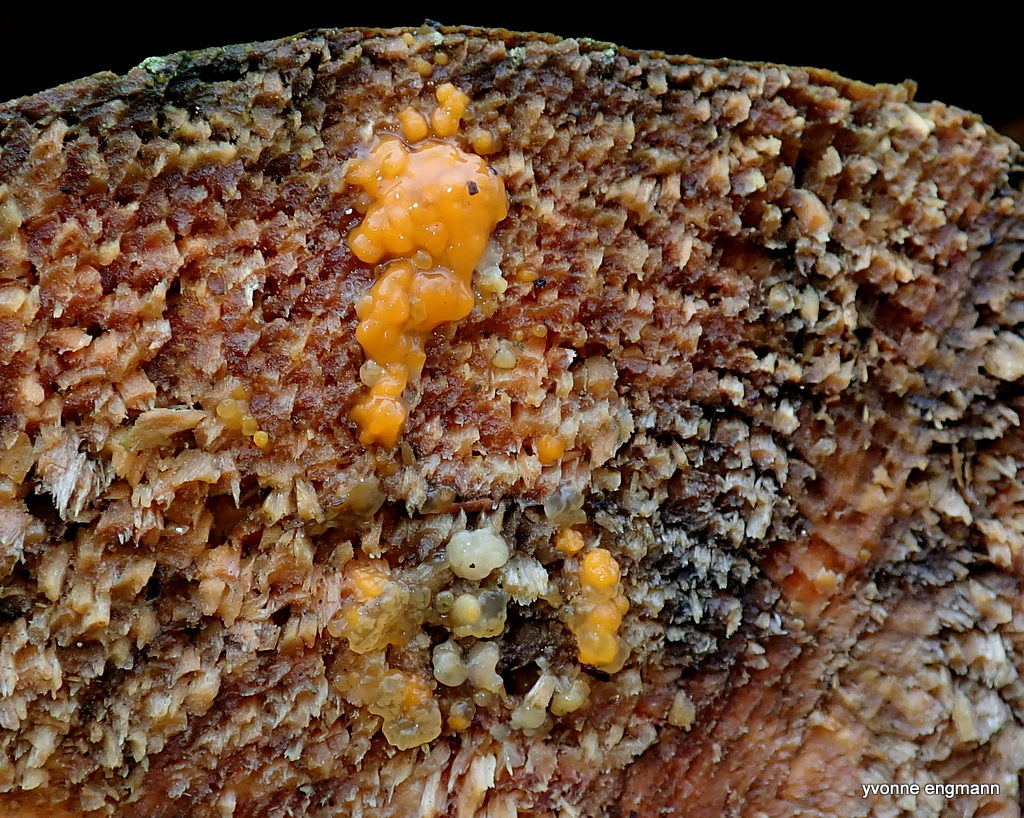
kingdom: Fungi
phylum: Basidiomycota
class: Dacrymycetes
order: Dacrymycetales
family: Dacrymycetaceae
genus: Dacrymyces
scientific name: Dacrymyces stillatus
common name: almindelig tåresvamp
